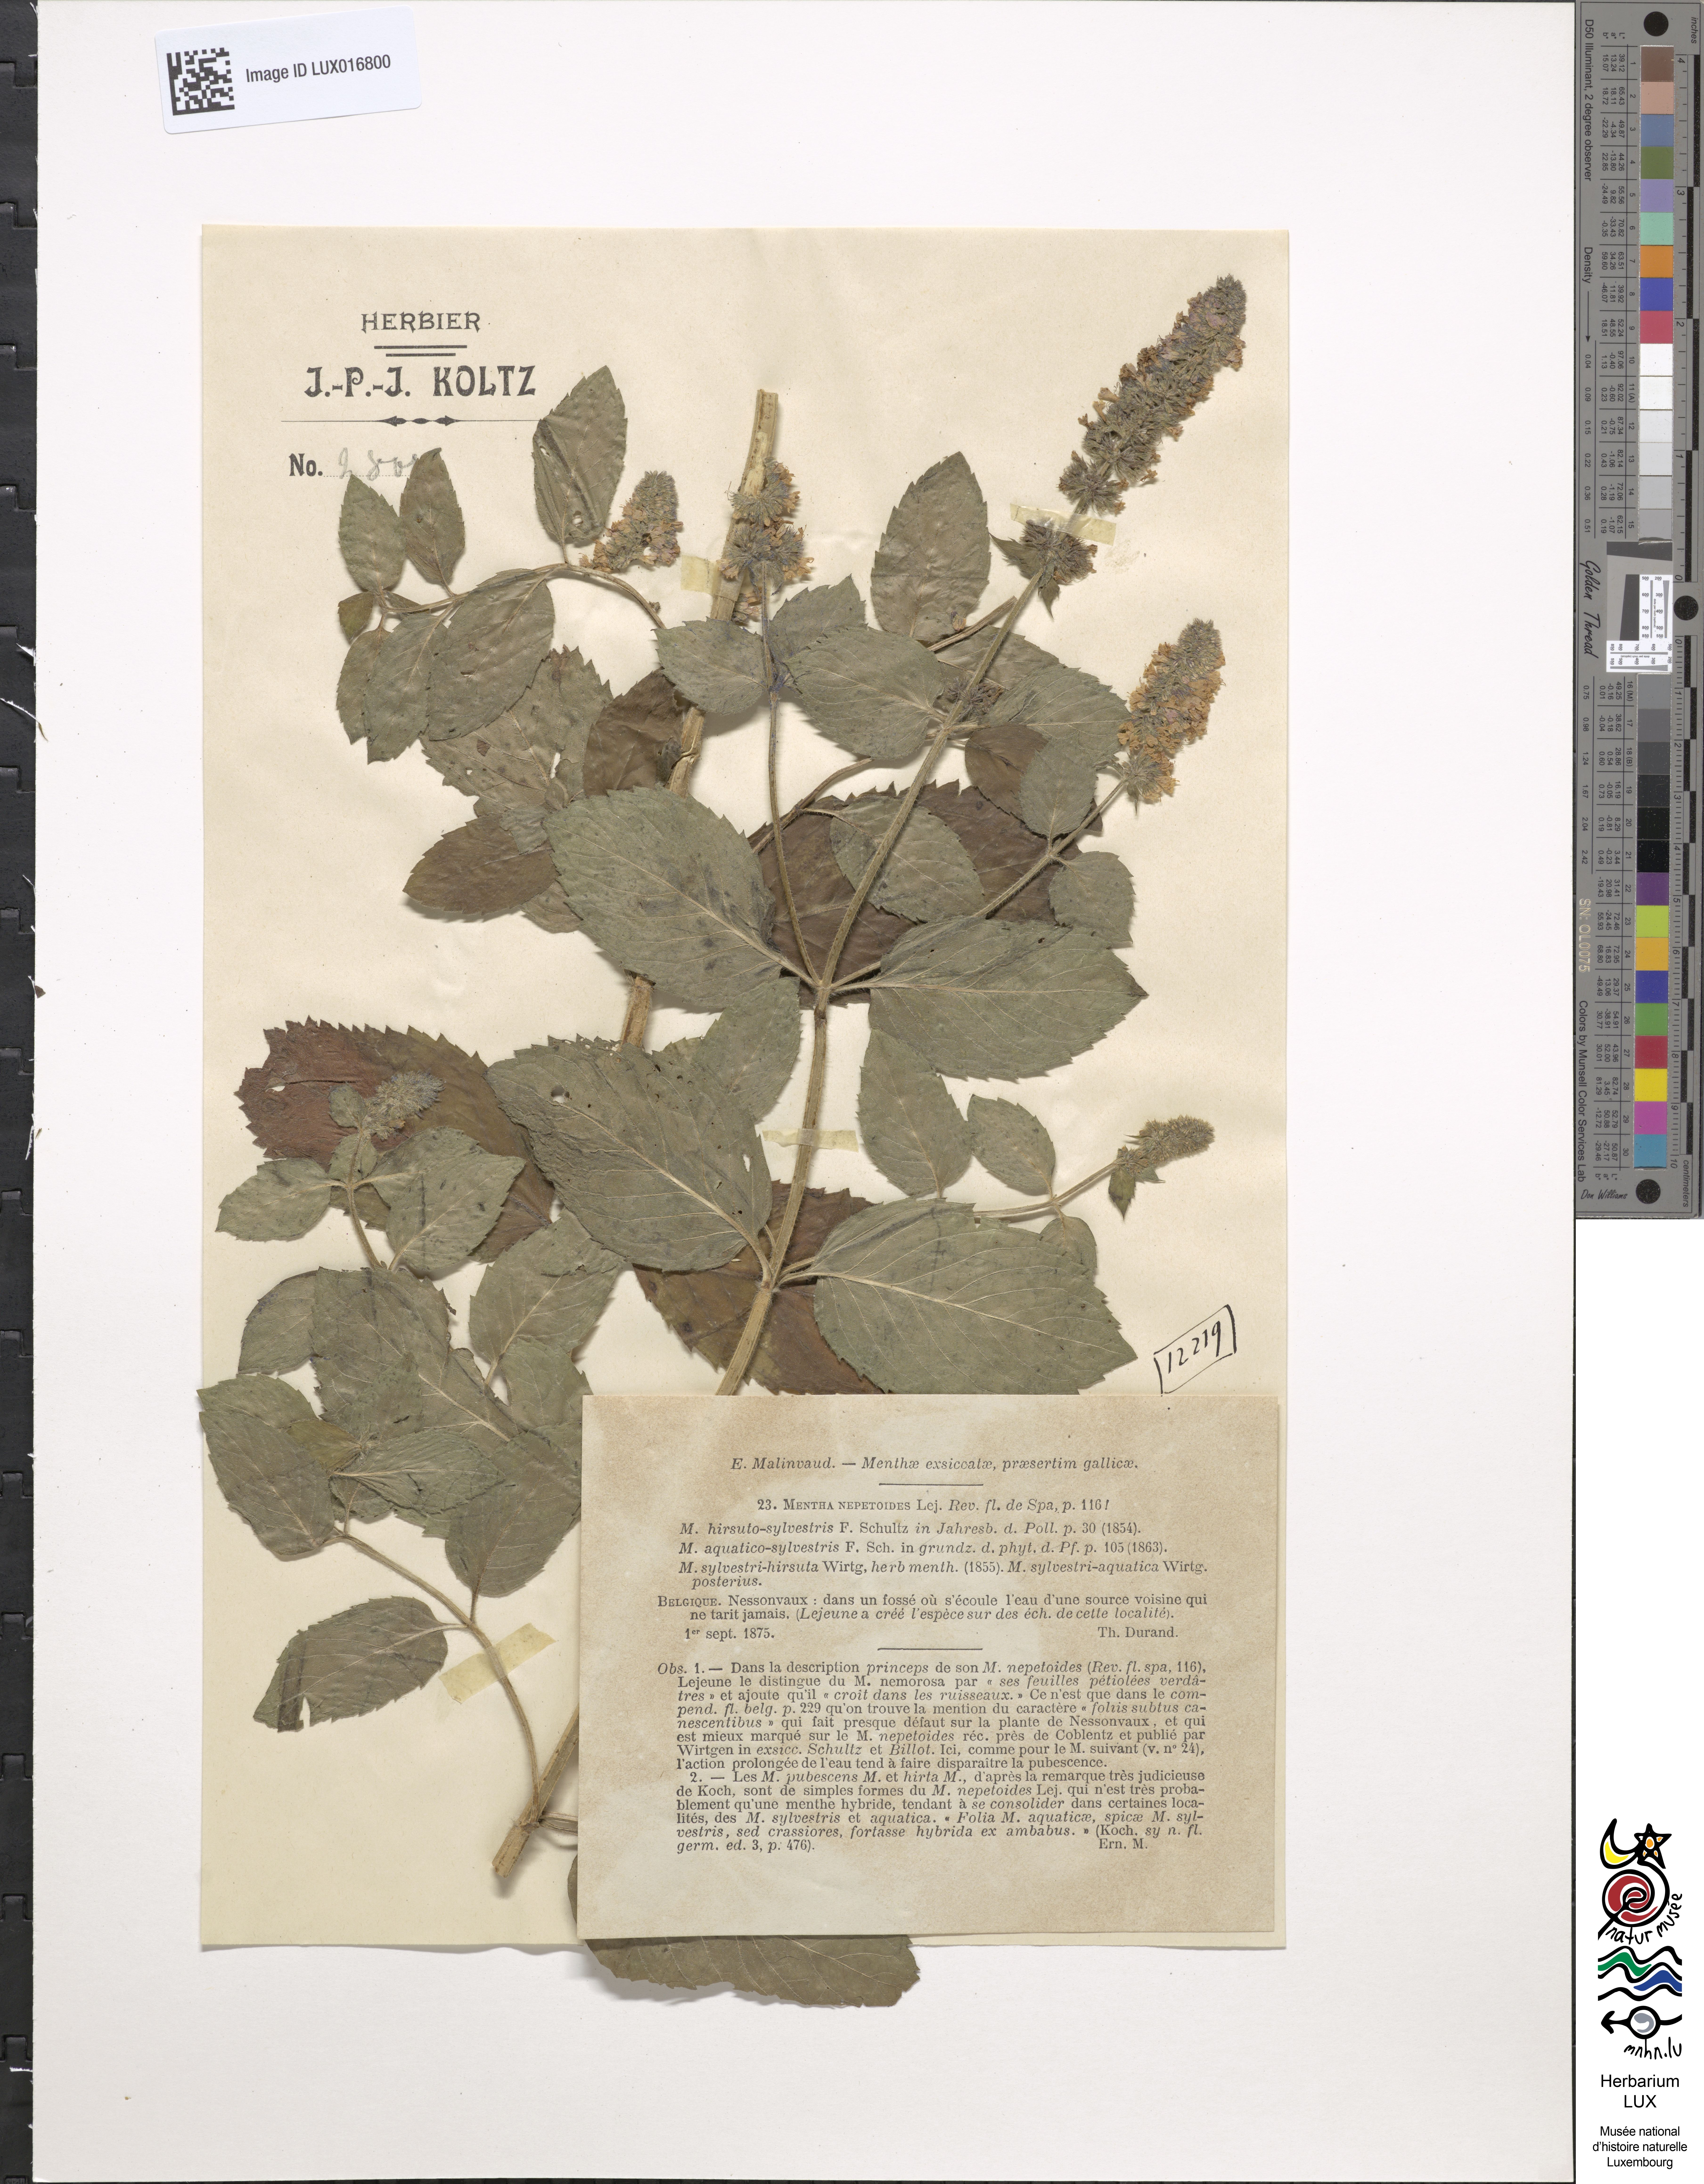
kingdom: Plantae
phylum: Tracheophyta
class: Magnoliopsida
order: Lamiales
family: Lamiaceae
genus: Mentha
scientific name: Mentha dumetorum
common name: Bush-loving mint
